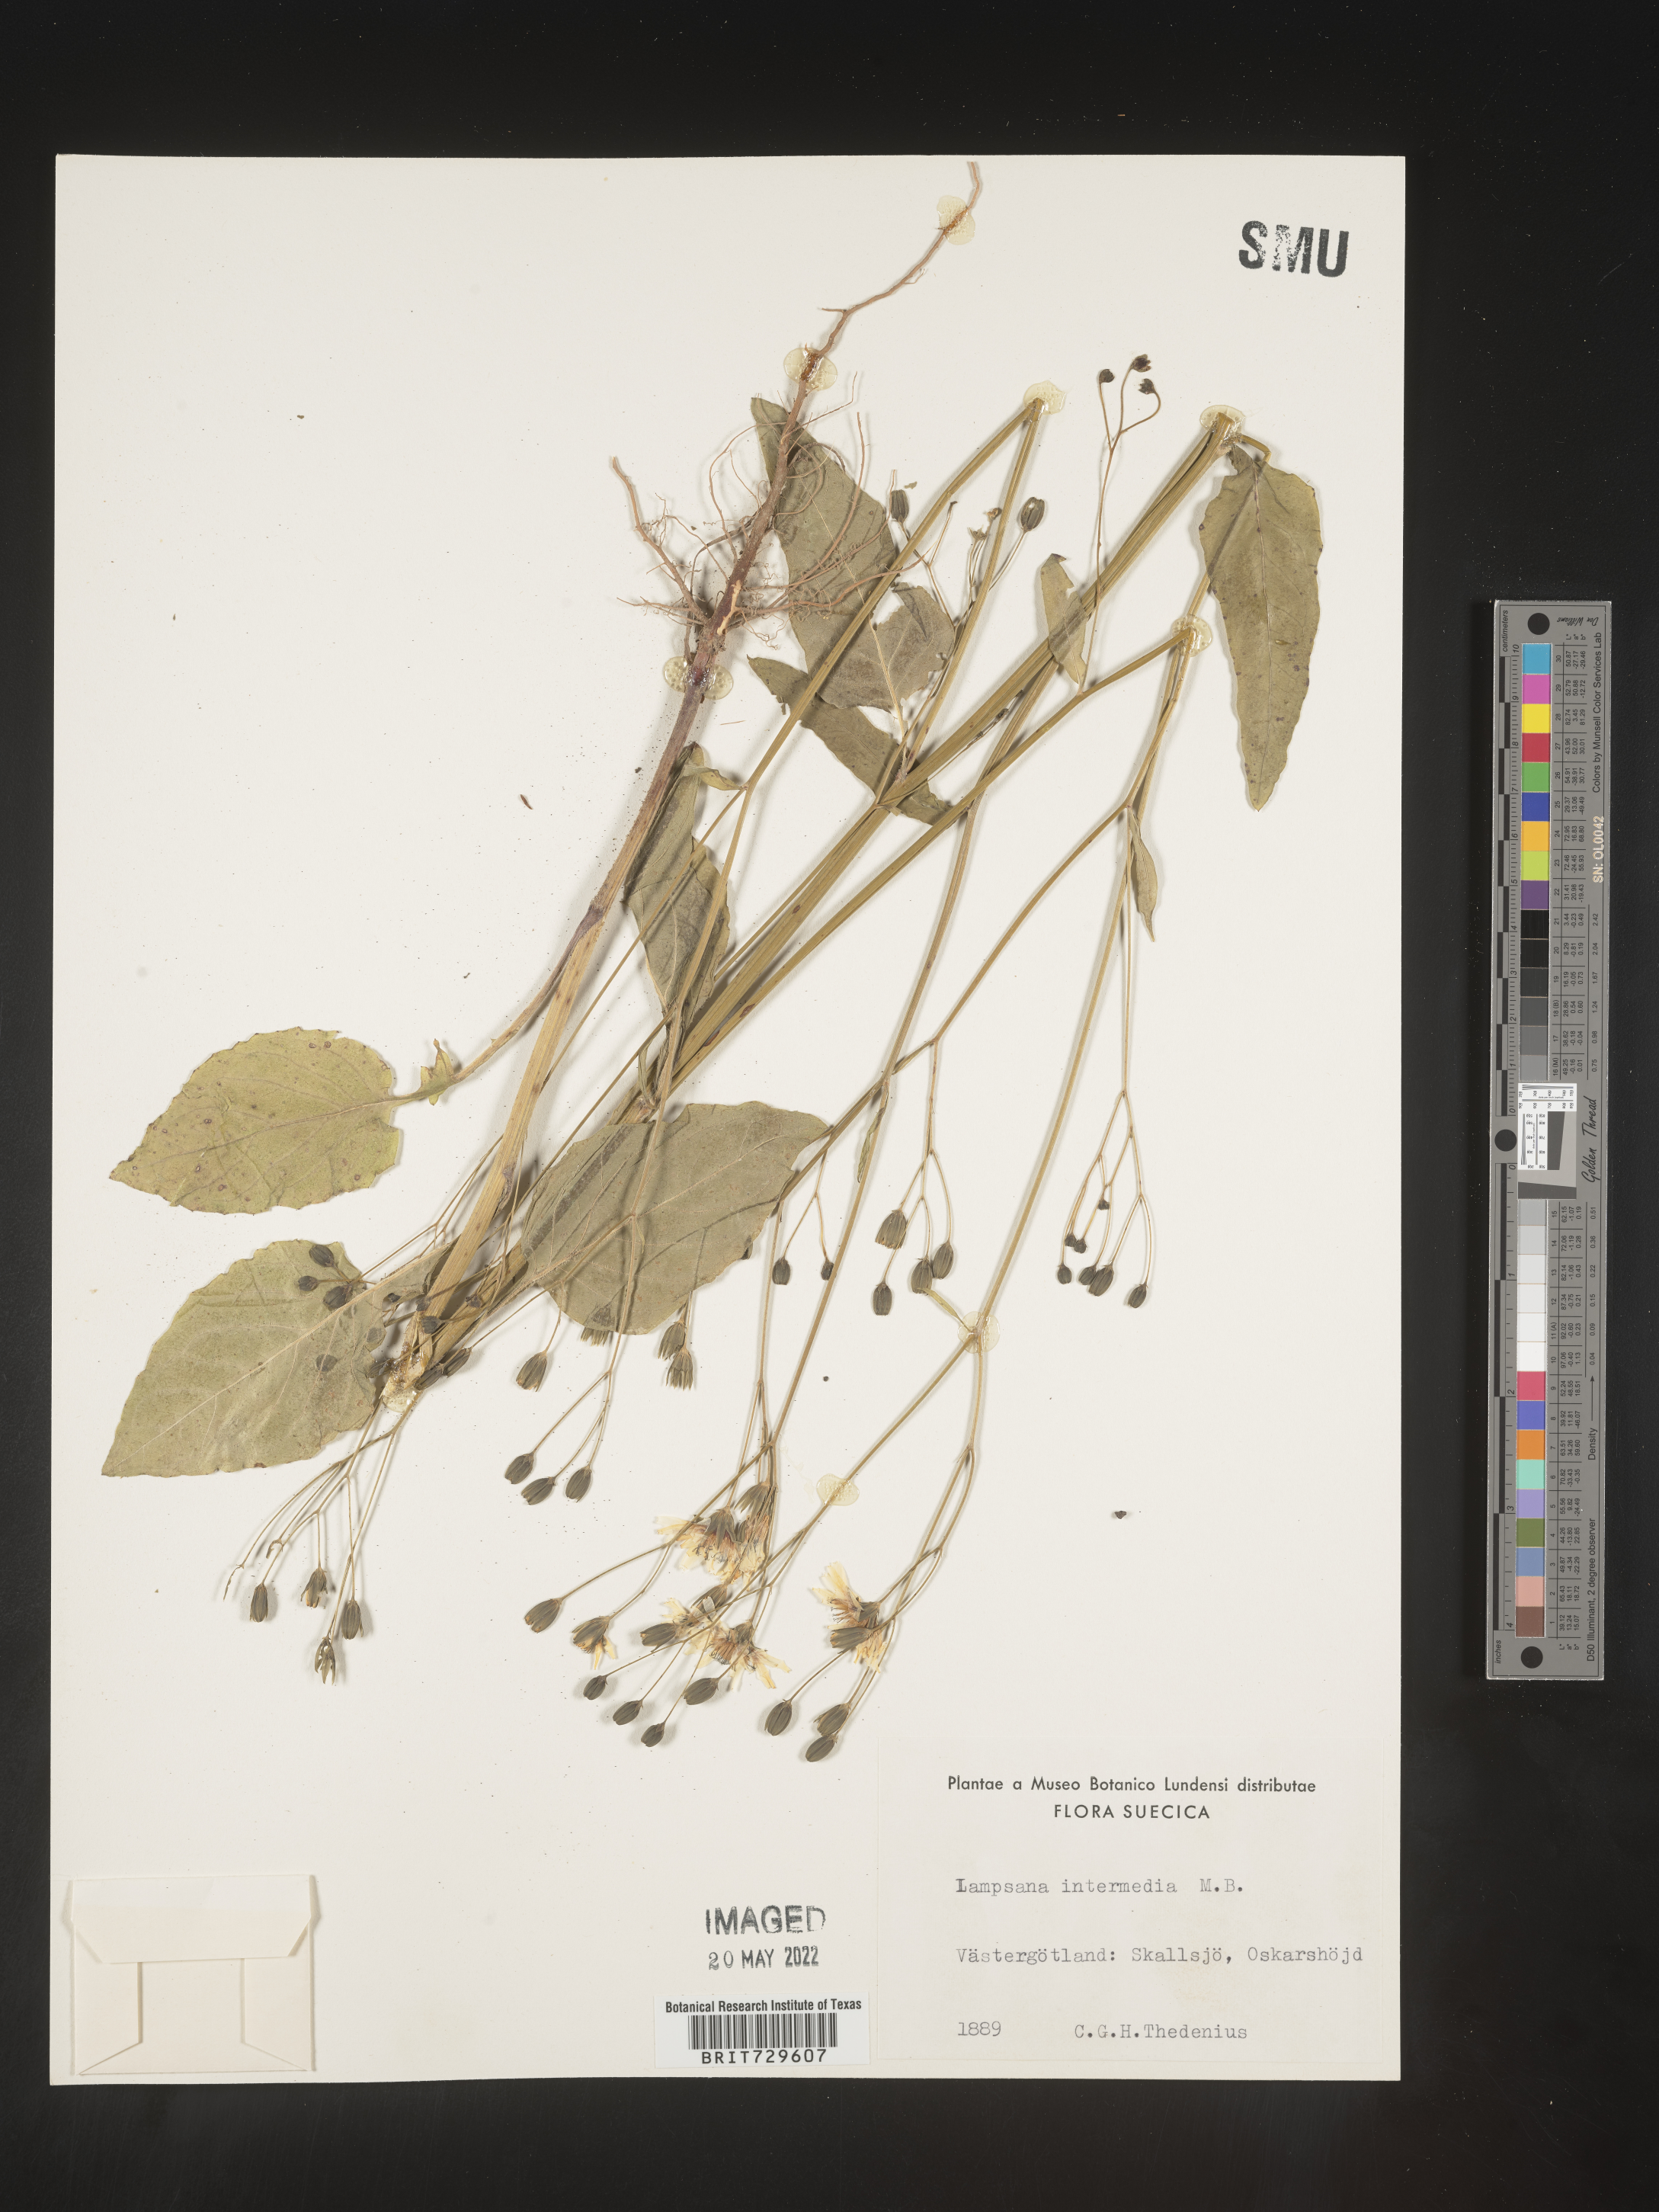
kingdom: Plantae
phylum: Tracheophyta
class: Magnoliopsida
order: Asterales
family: Asteraceae
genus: Lapsana
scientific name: Lapsana
